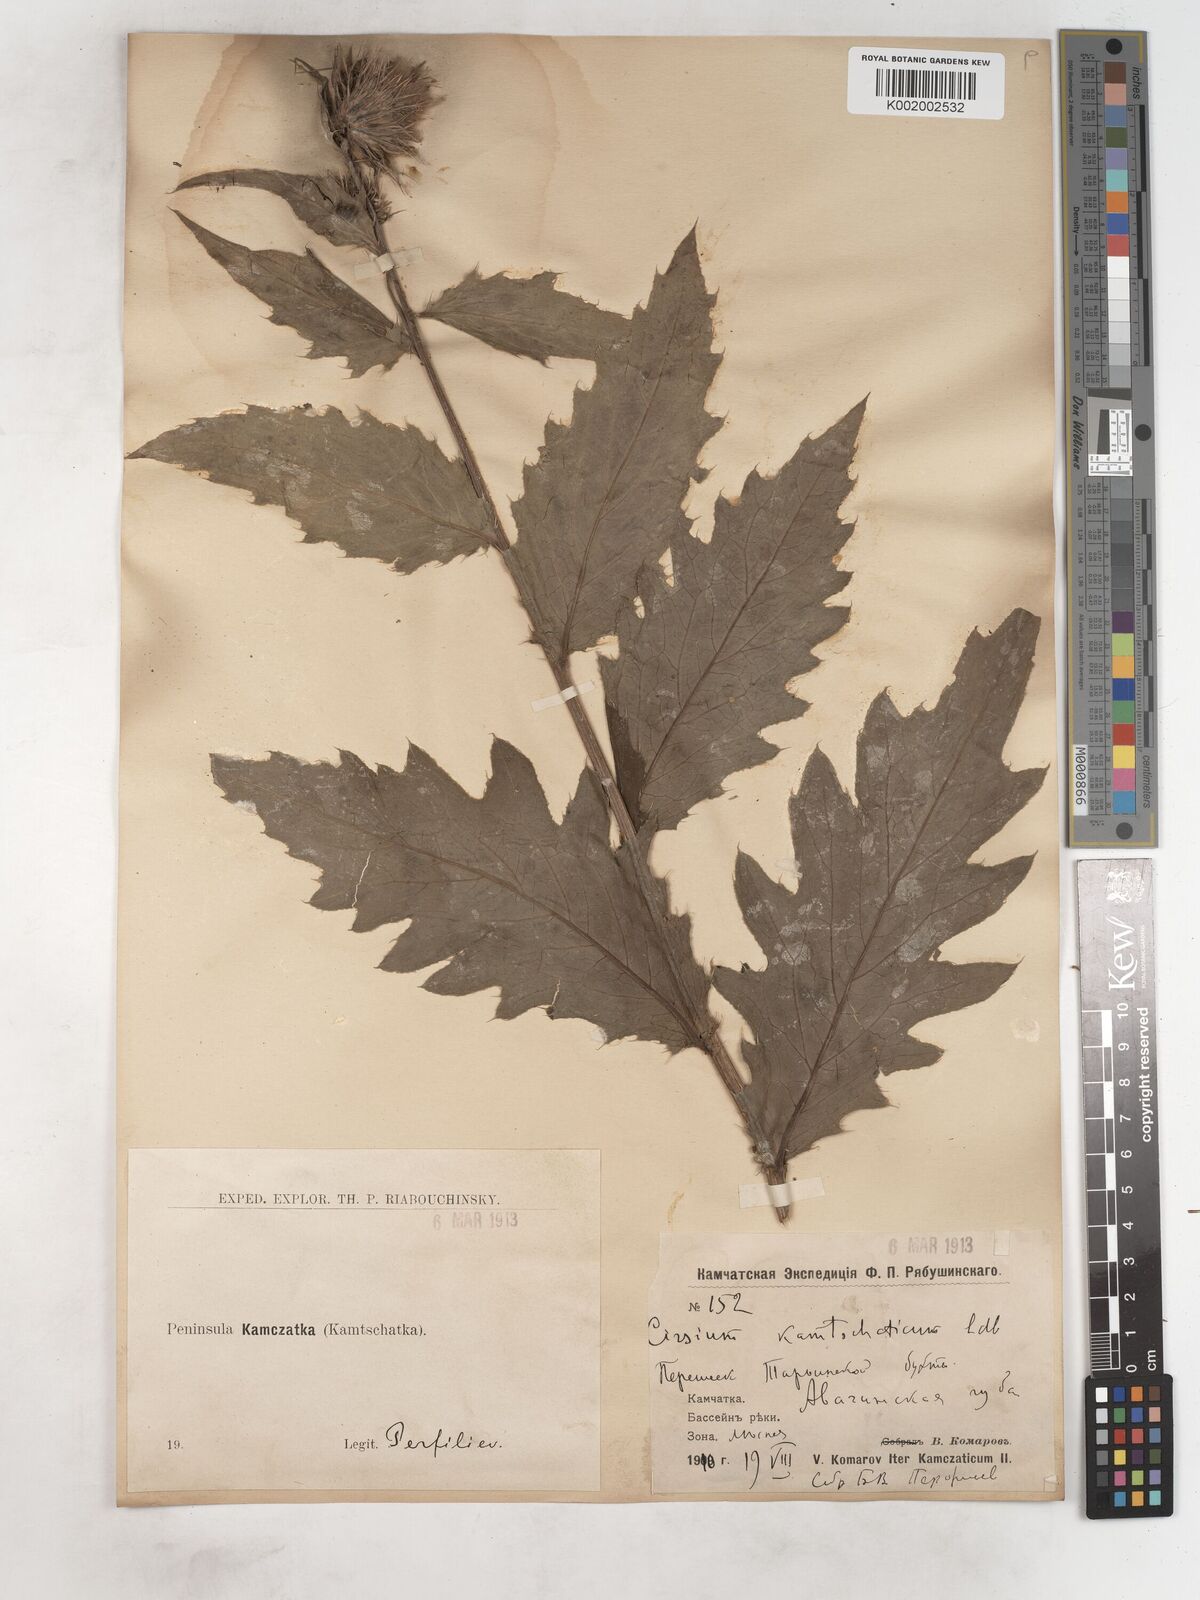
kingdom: Plantae
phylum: Tracheophyta
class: Magnoliopsida
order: Asterales
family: Asteraceae
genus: Cirsium
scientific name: Cirsium kamtschaticum
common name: Kamchatka thistle
